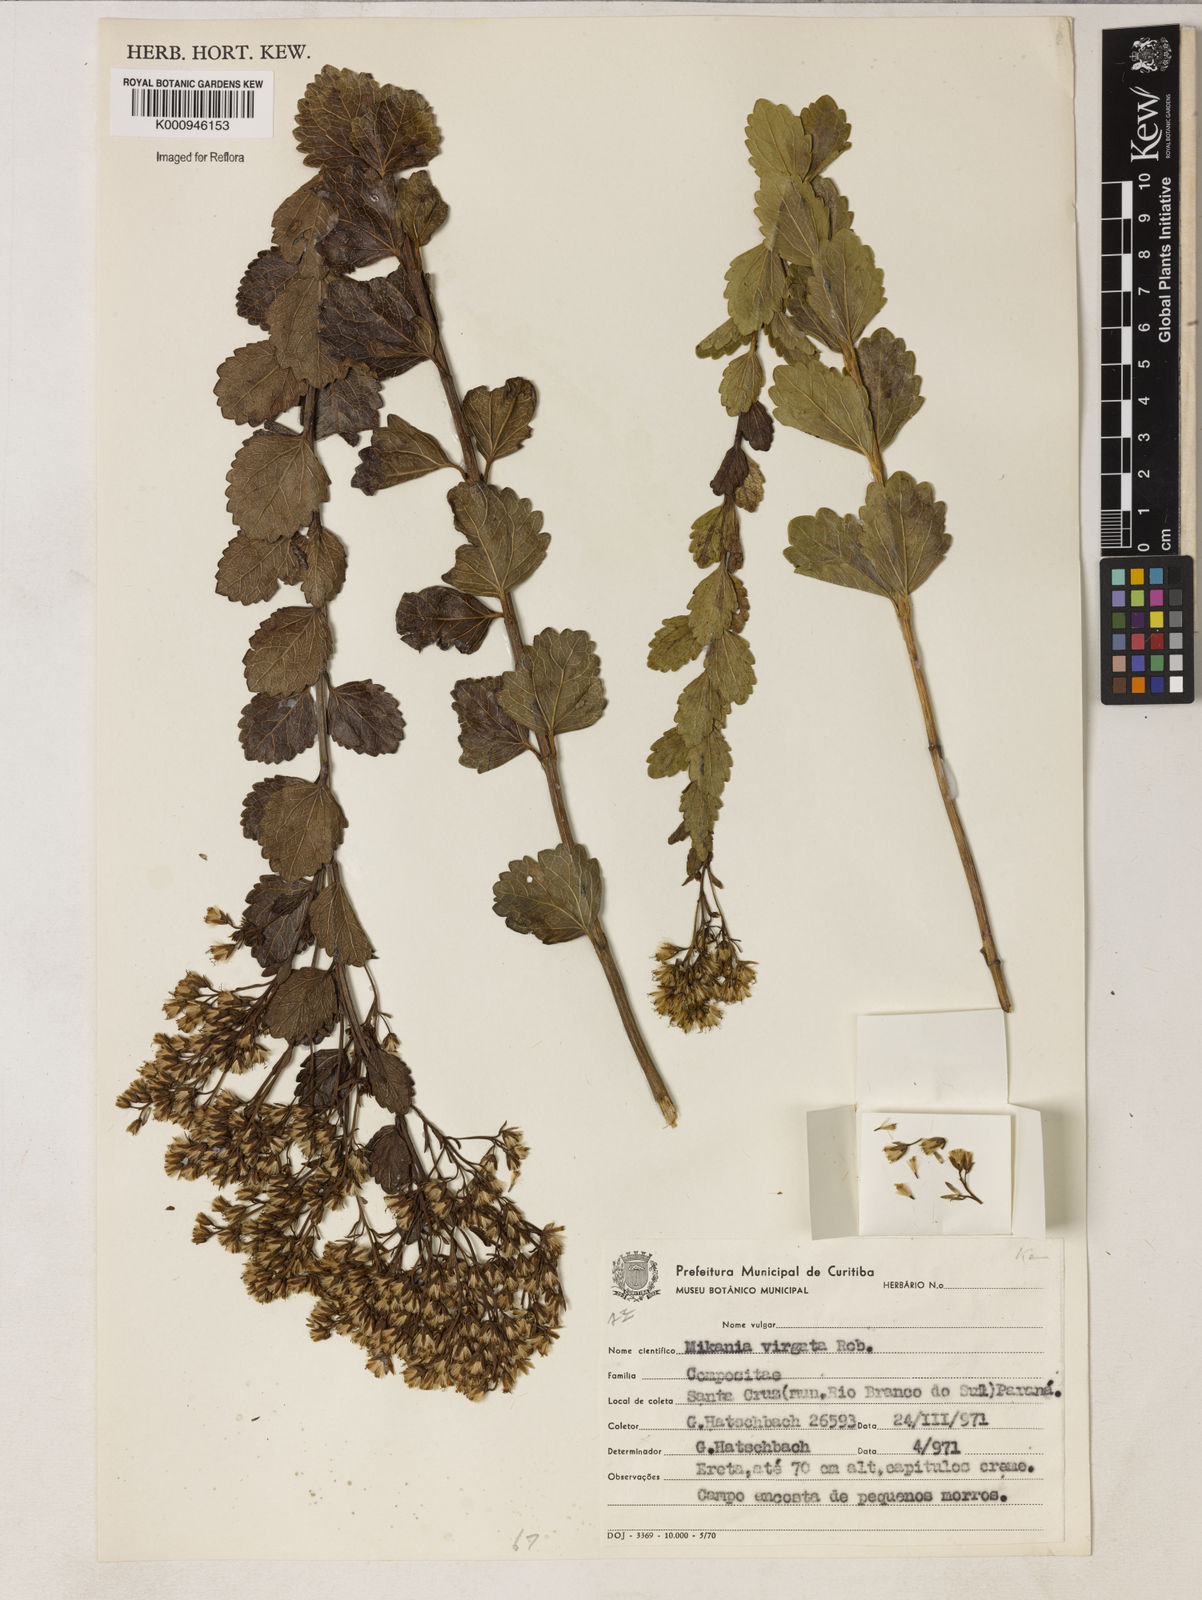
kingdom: Plantae
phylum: Tracheophyta
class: Magnoliopsida
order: Asterales
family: Asteraceae
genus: Mikania
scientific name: Mikania virgata
